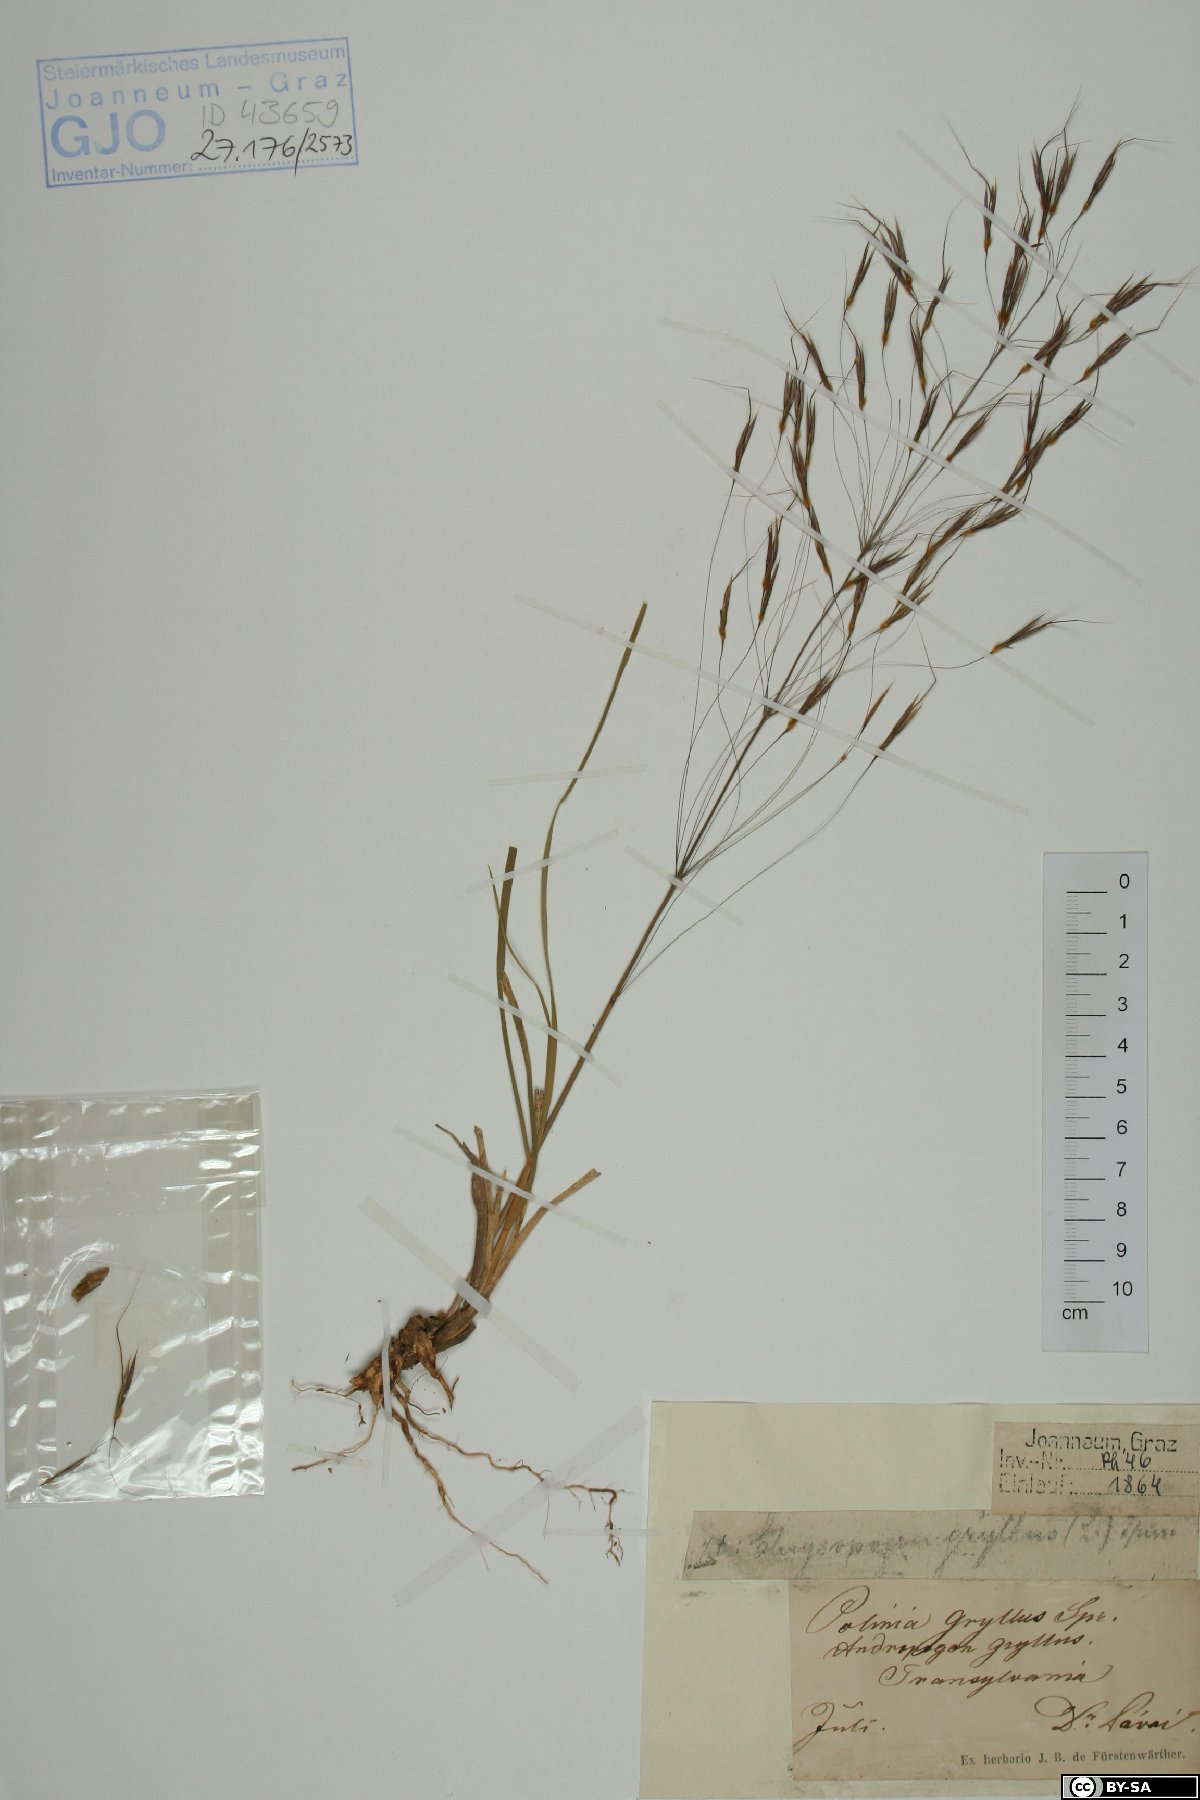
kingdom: Plantae
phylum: Tracheophyta
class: Liliopsida
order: Poales
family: Poaceae
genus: Chrysopogon
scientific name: Chrysopogon gryllus
